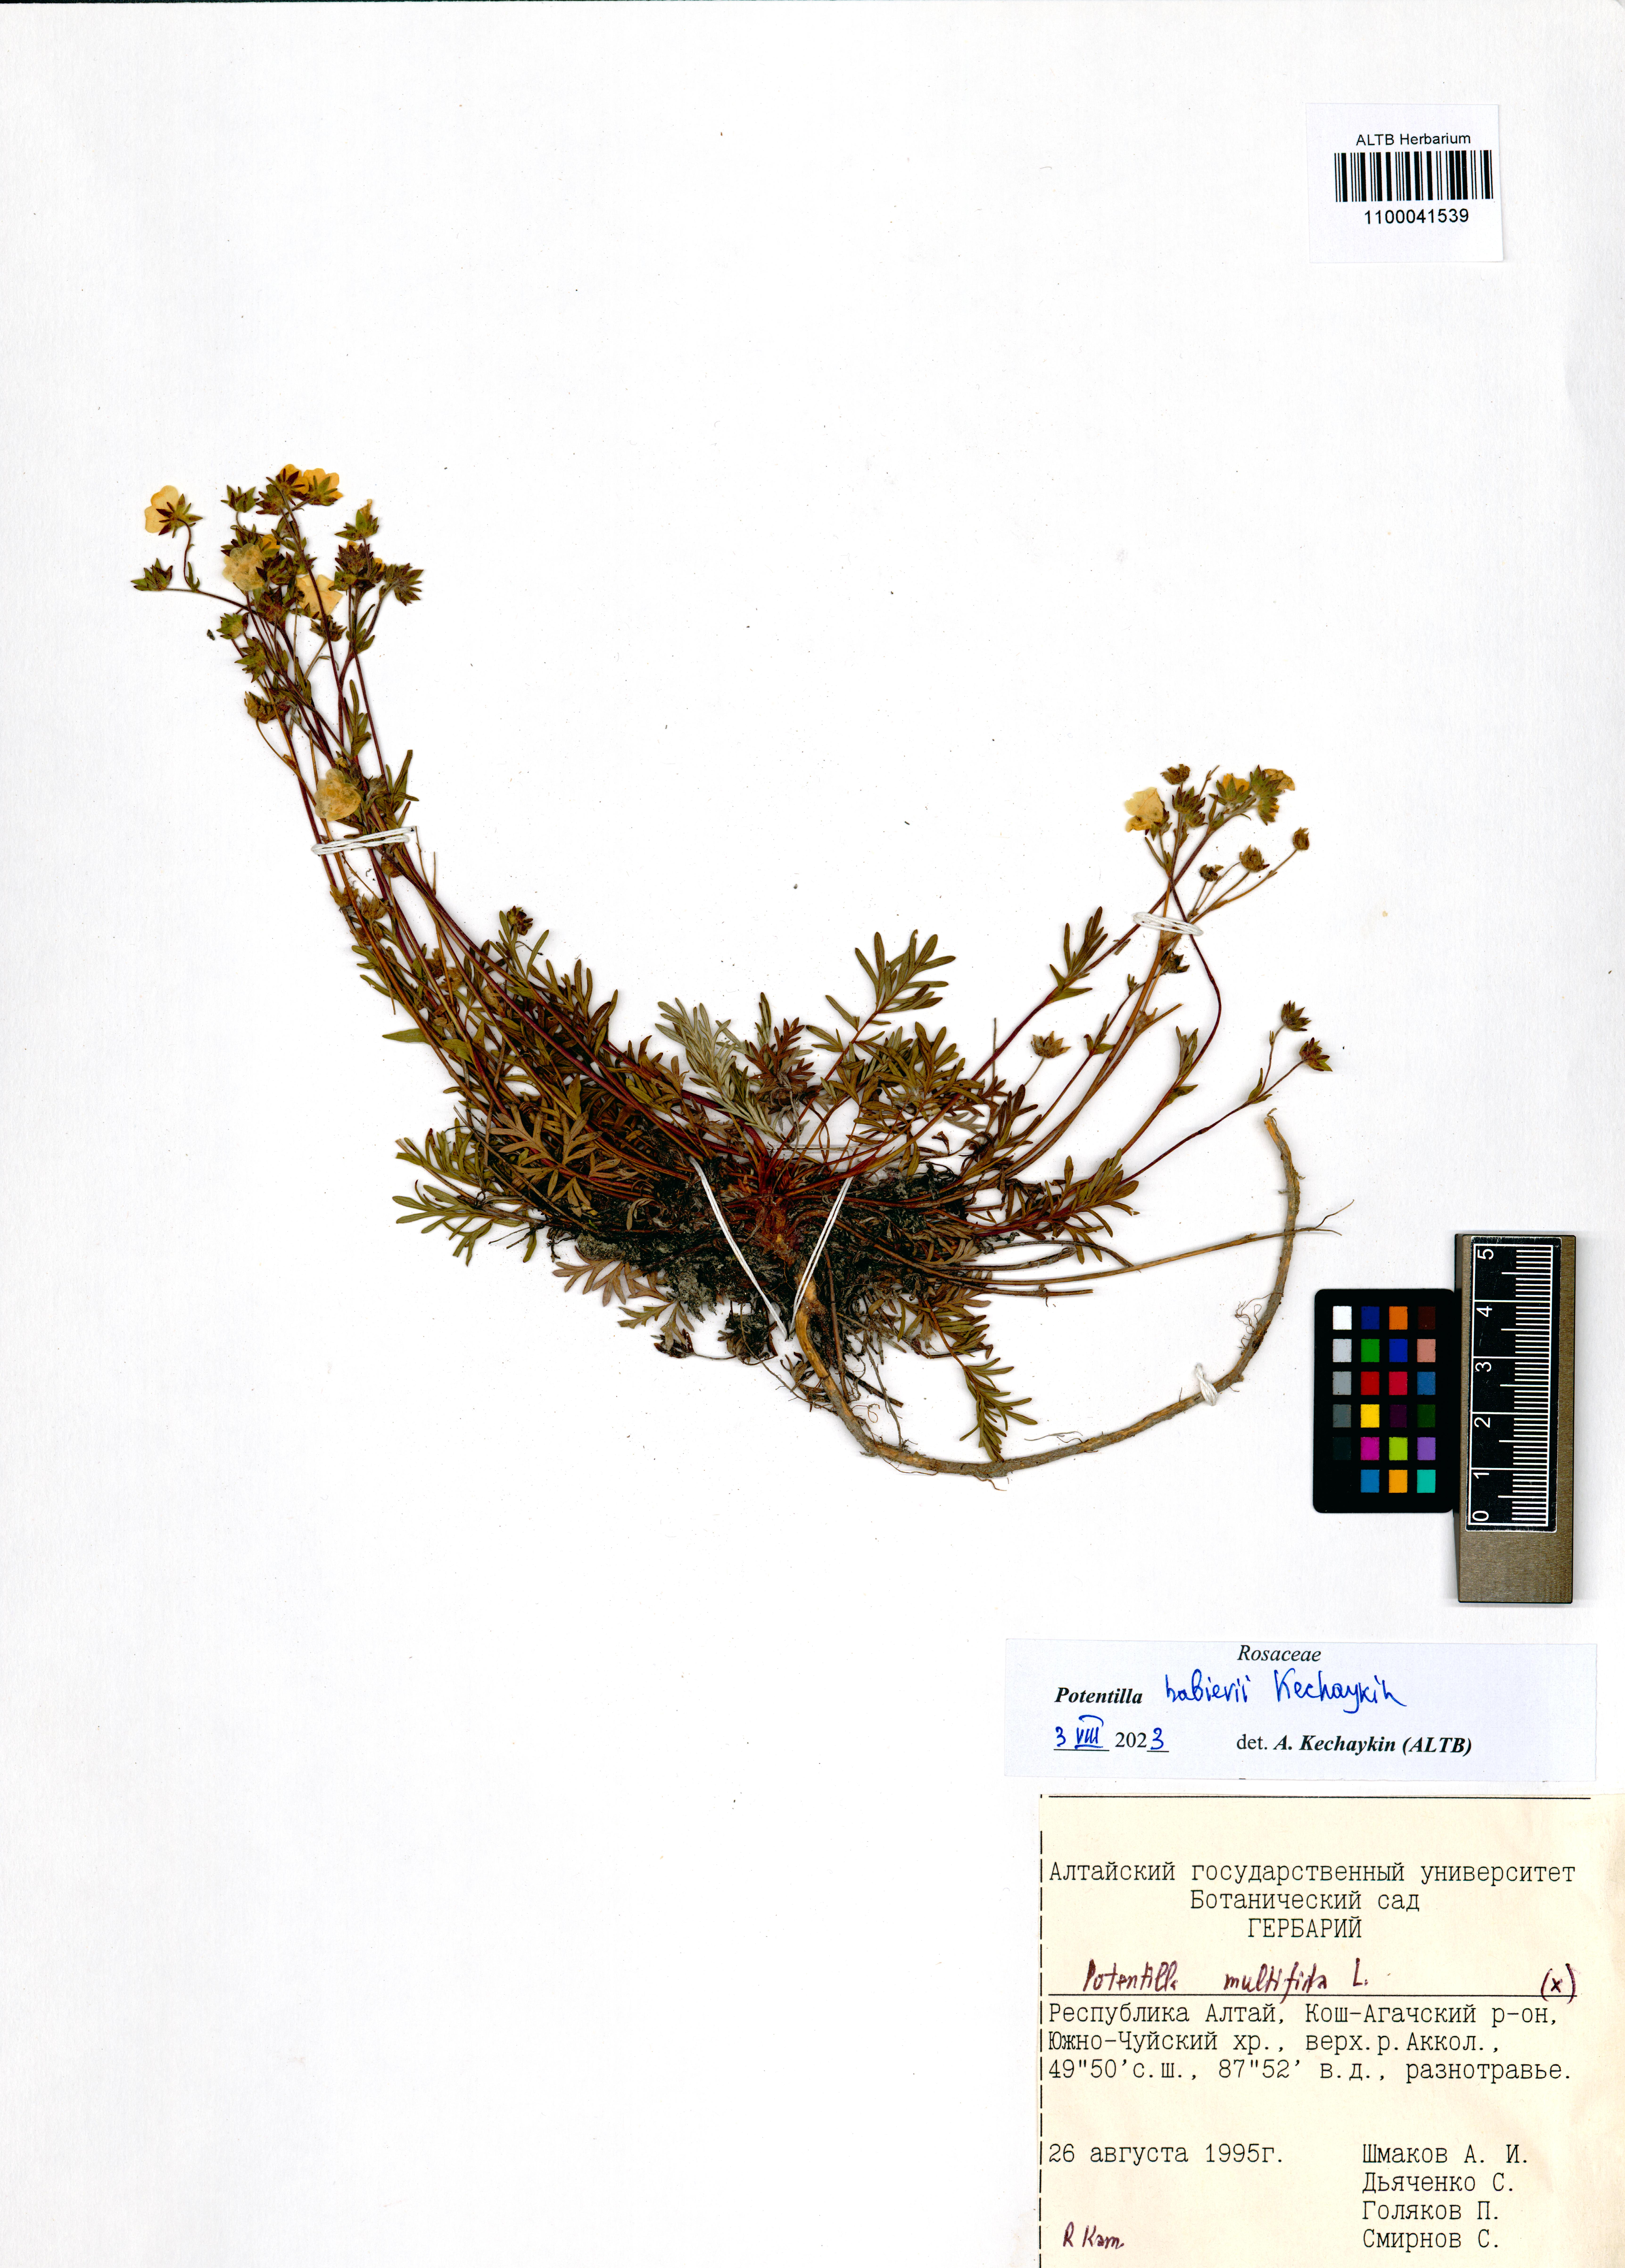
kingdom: Plantae
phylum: Tracheophyta
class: Magnoliopsida
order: Rosales
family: Rosaceae
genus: Potentilla
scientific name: Potentilla habievii
